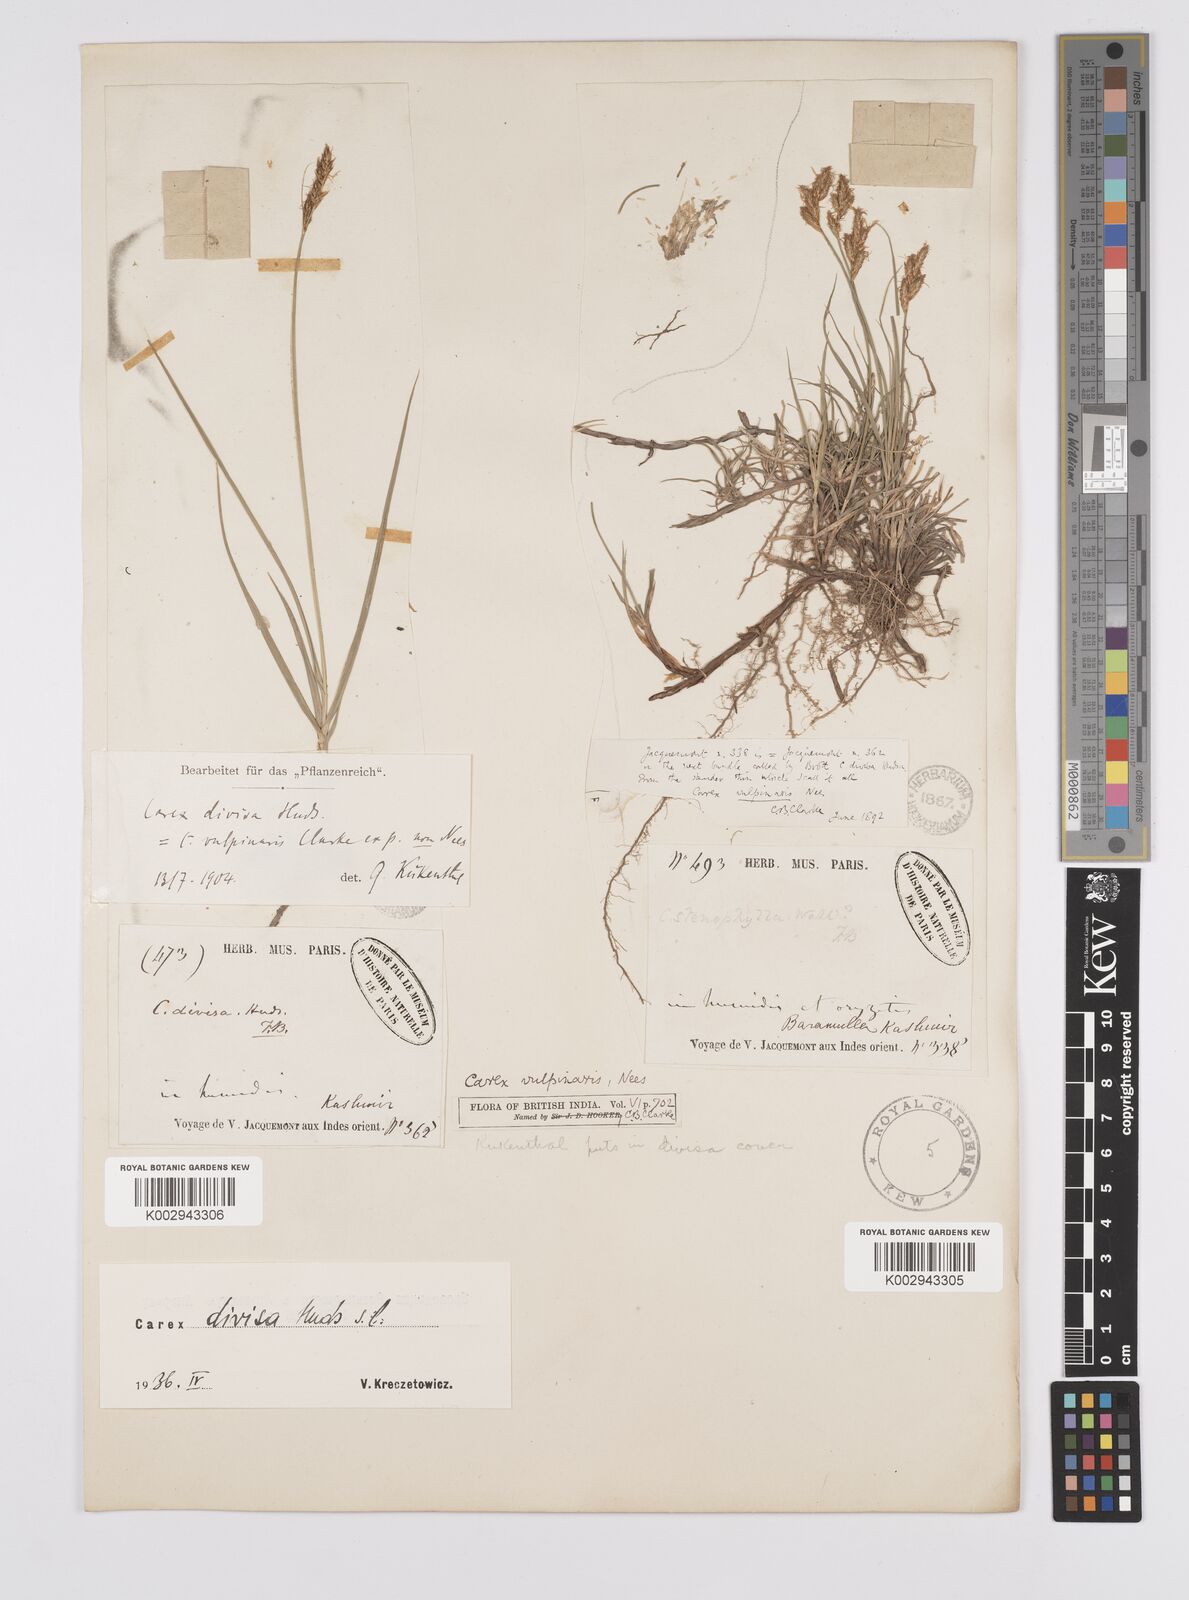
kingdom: Plantae
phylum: Tracheophyta
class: Liliopsida
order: Poales
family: Cyperaceae
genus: Carex
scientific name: Carex divisa
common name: Divided sedge
